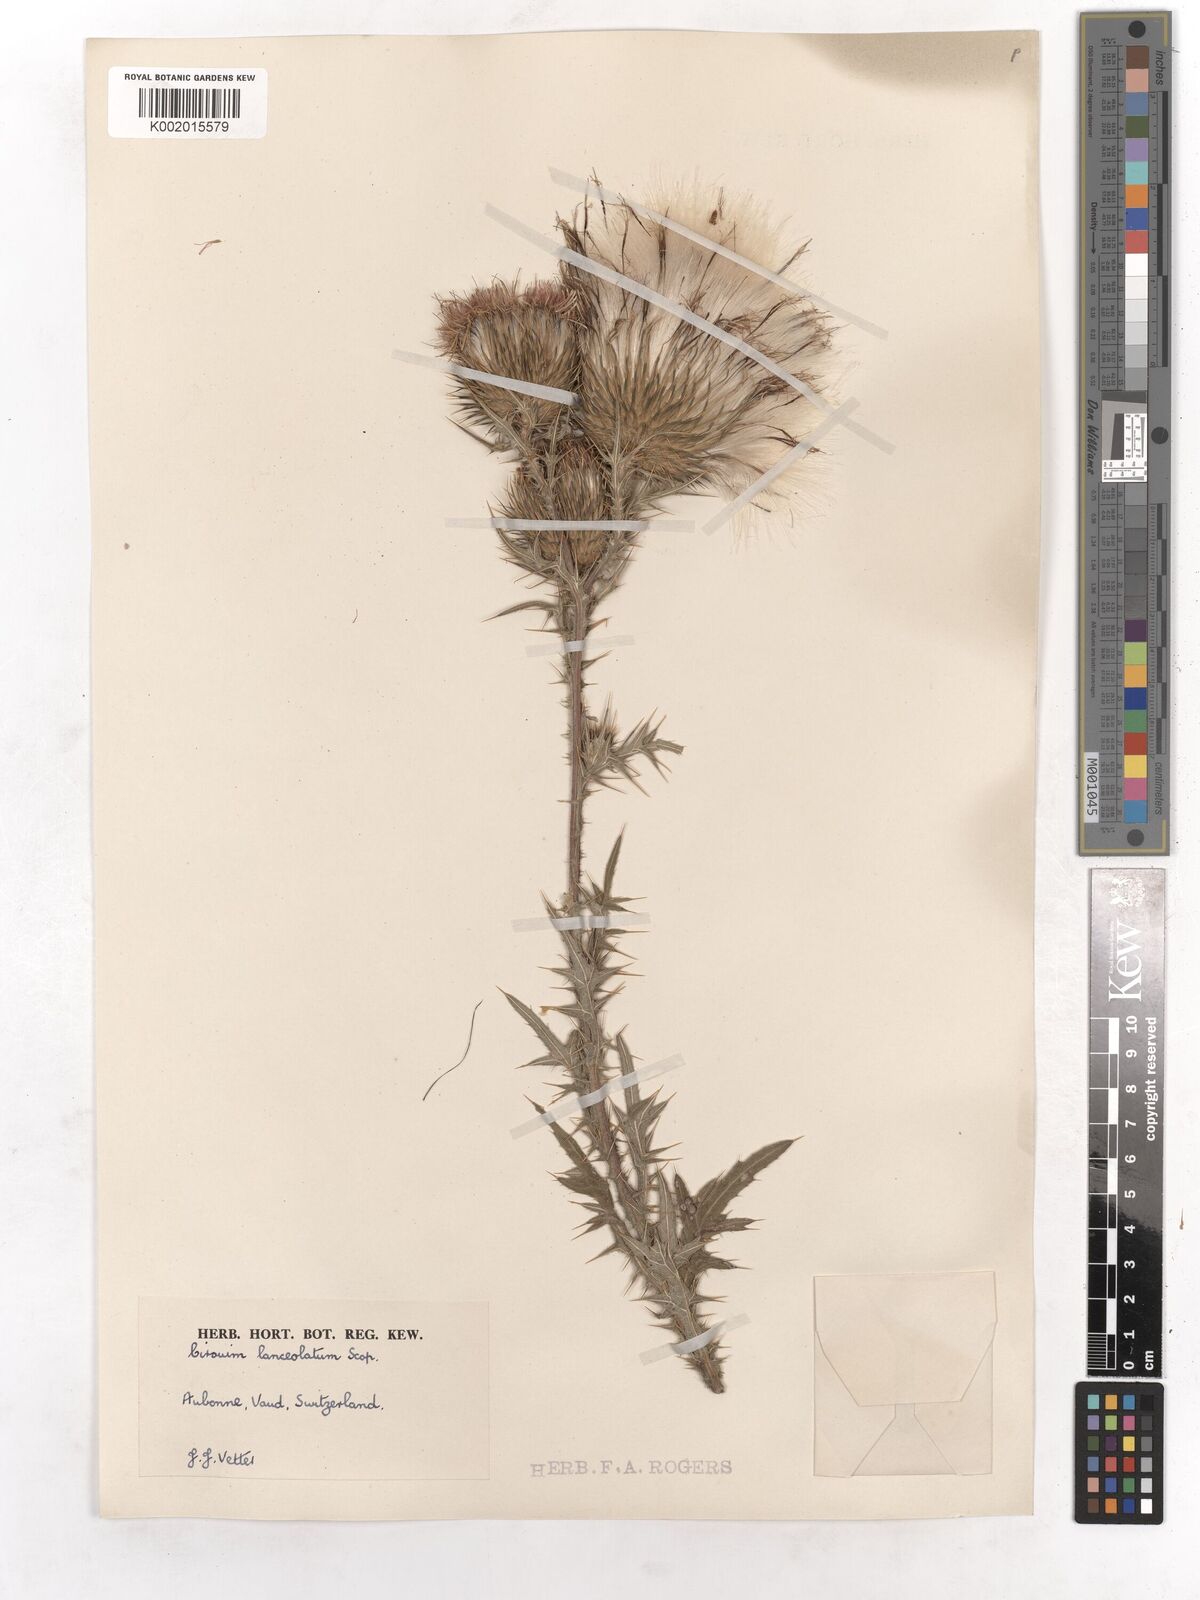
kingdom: Plantae
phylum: Tracheophyta
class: Magnoliopsida
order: Asterales
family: Asteraceae
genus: Cirsium
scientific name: Cirsium vulgare
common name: Bull thistle
